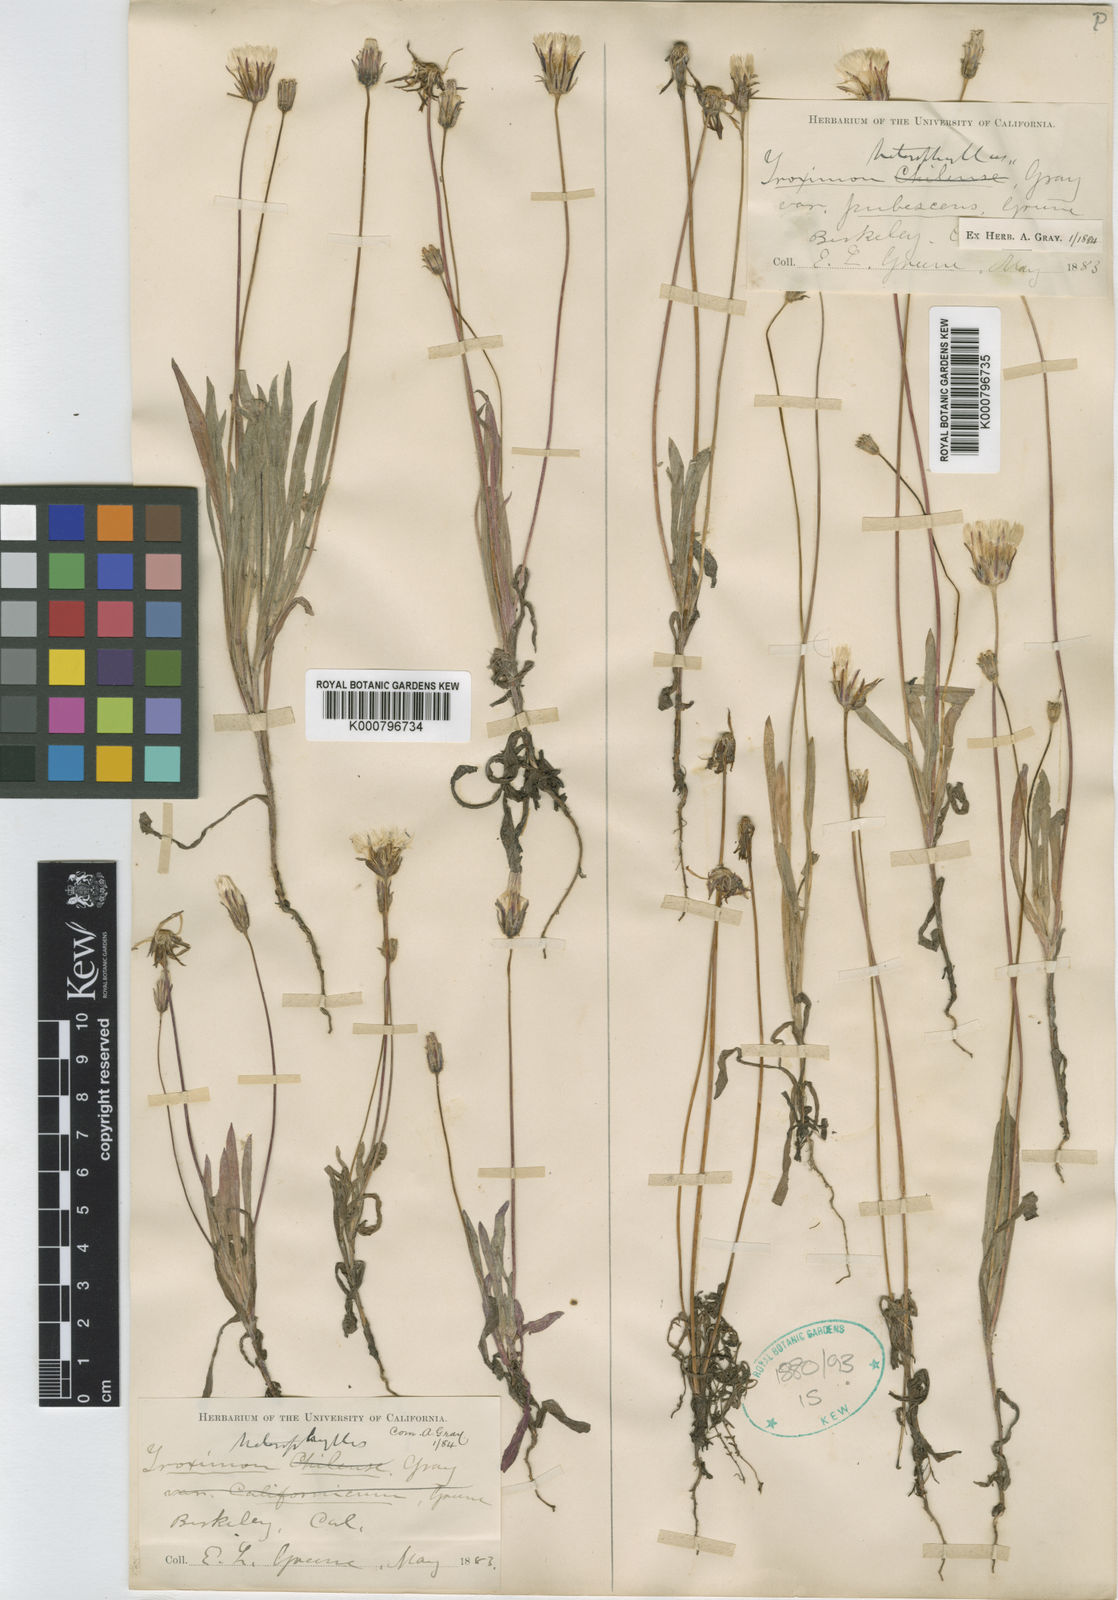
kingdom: Plantae
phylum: Tracheophyta
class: Magnoliopsida
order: Asterales
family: Asteraceae
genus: Agoseris
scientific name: Agoseris heterophylla
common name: Annual agoseris
